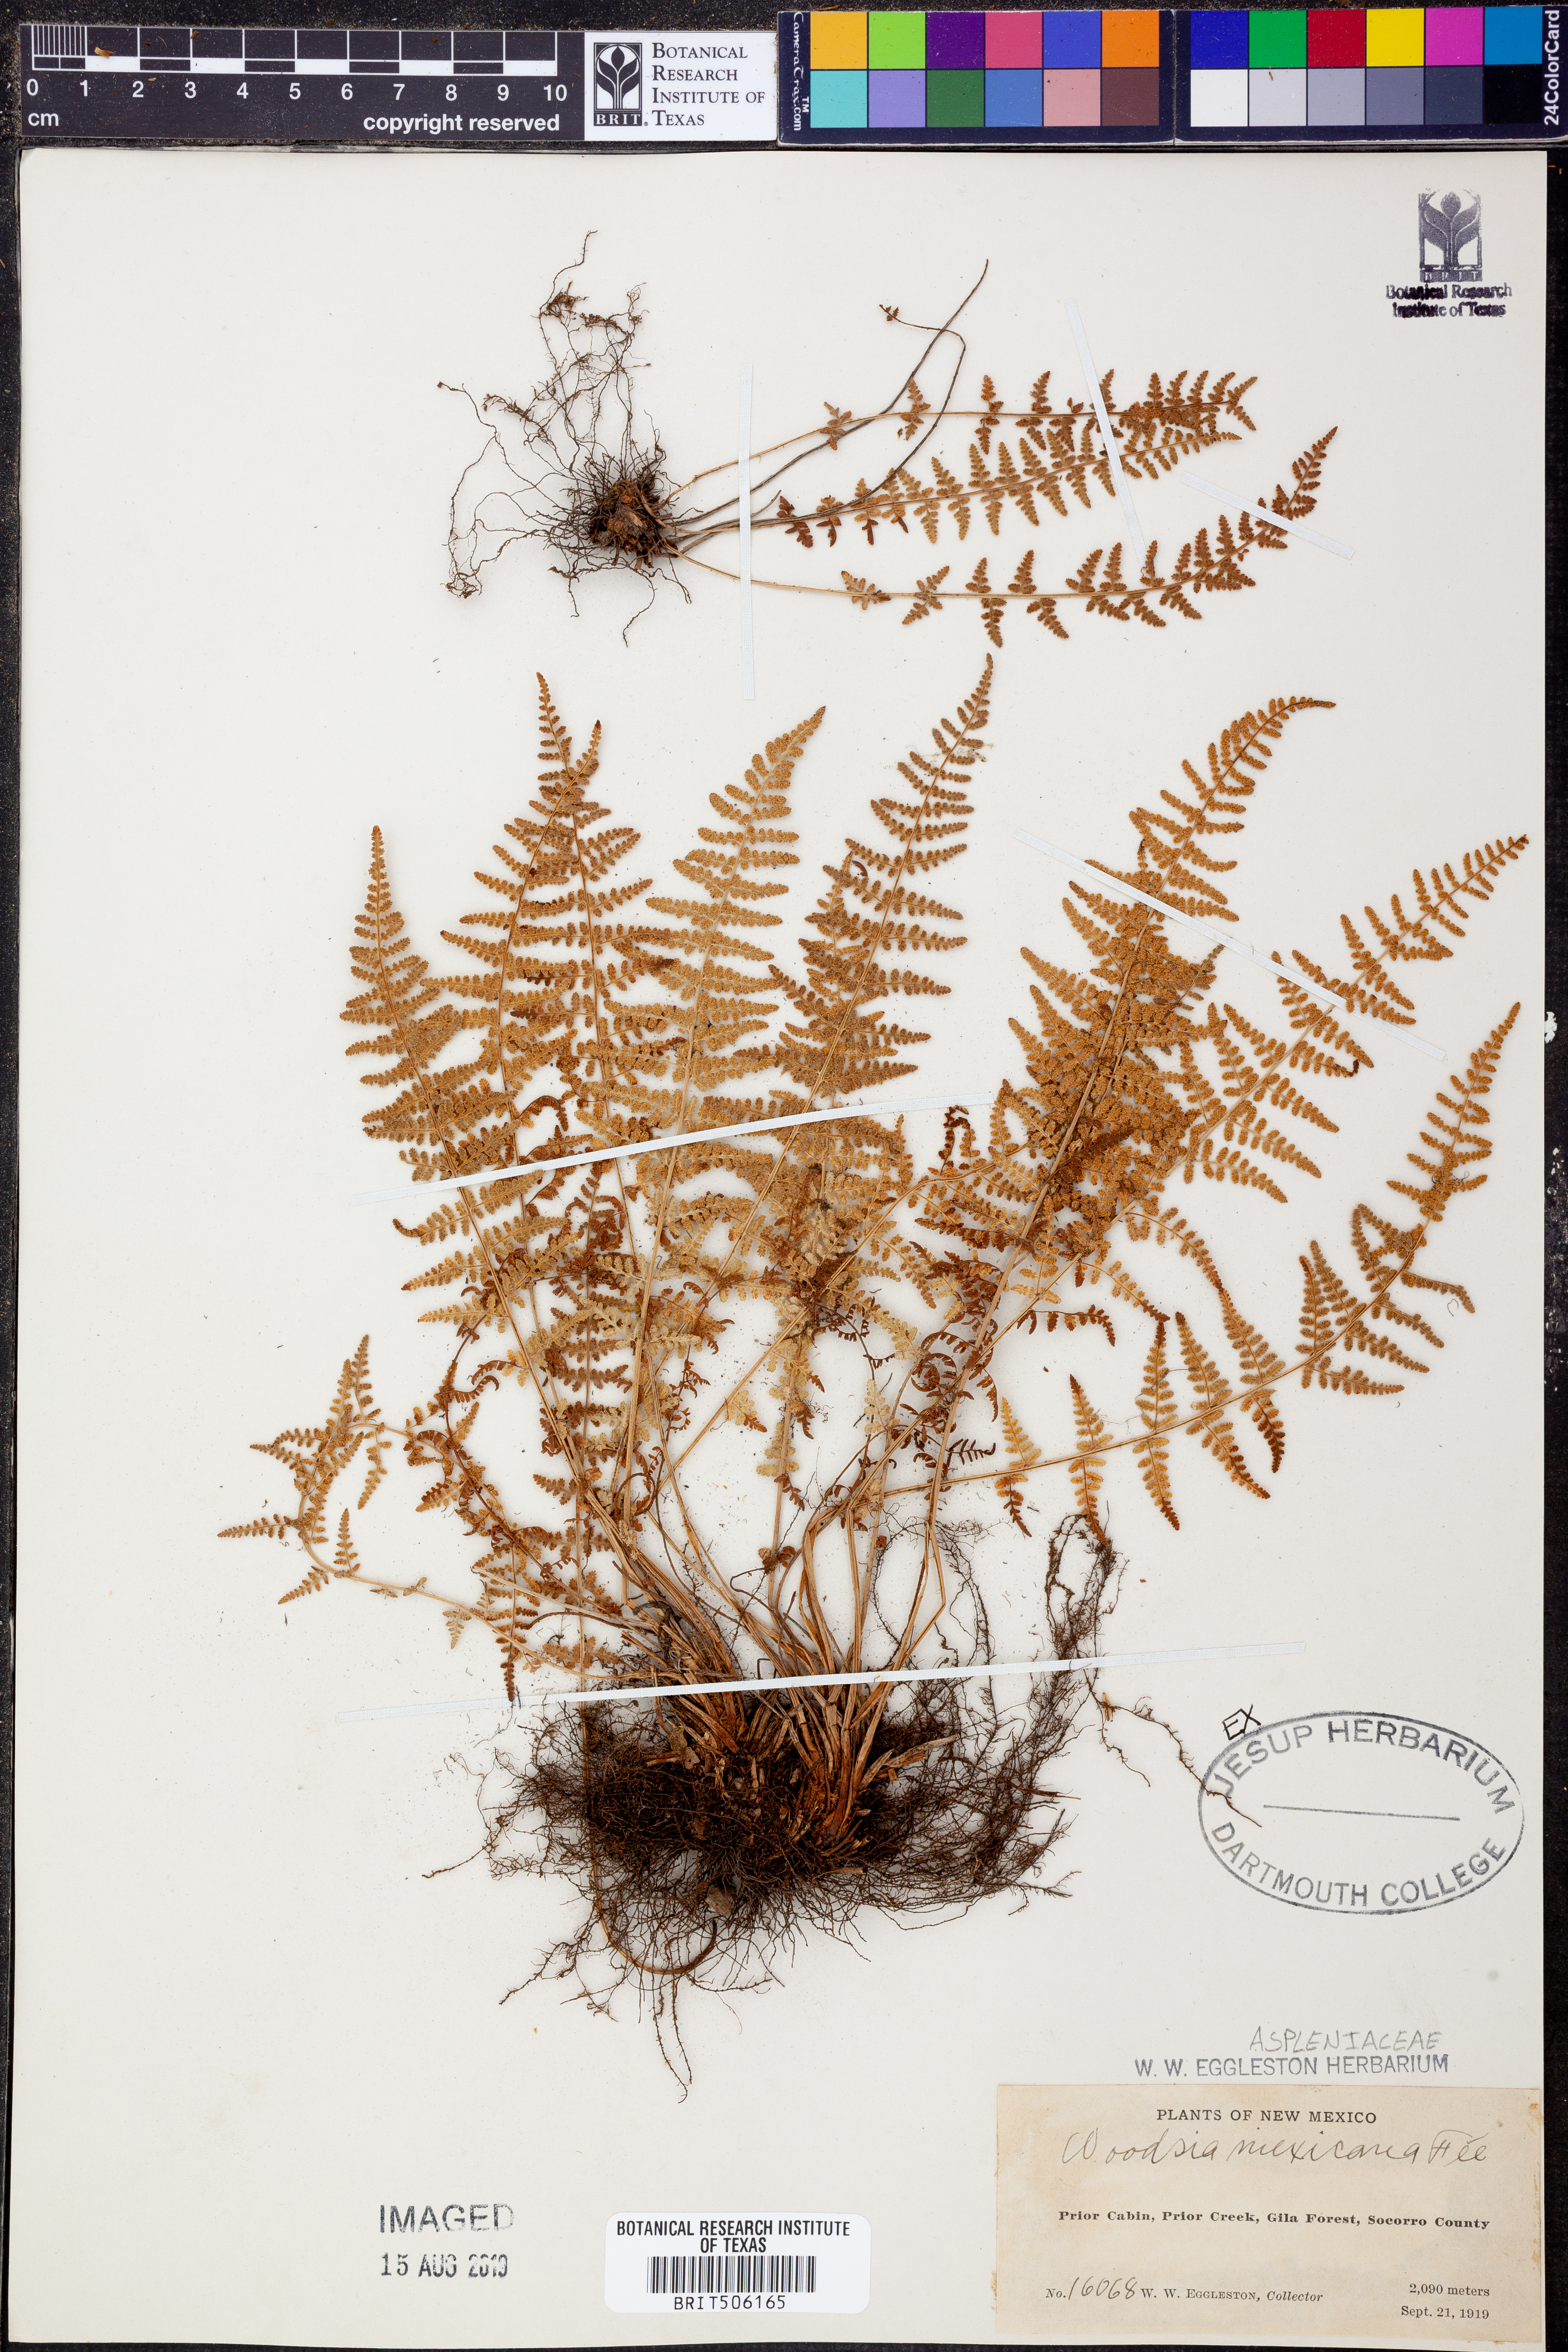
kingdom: Plantae
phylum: Tracheophyta
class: Polypodiopsida
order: Polypodiales
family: Woodsiaceae
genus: Physematium
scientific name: Physematium mexicanum
